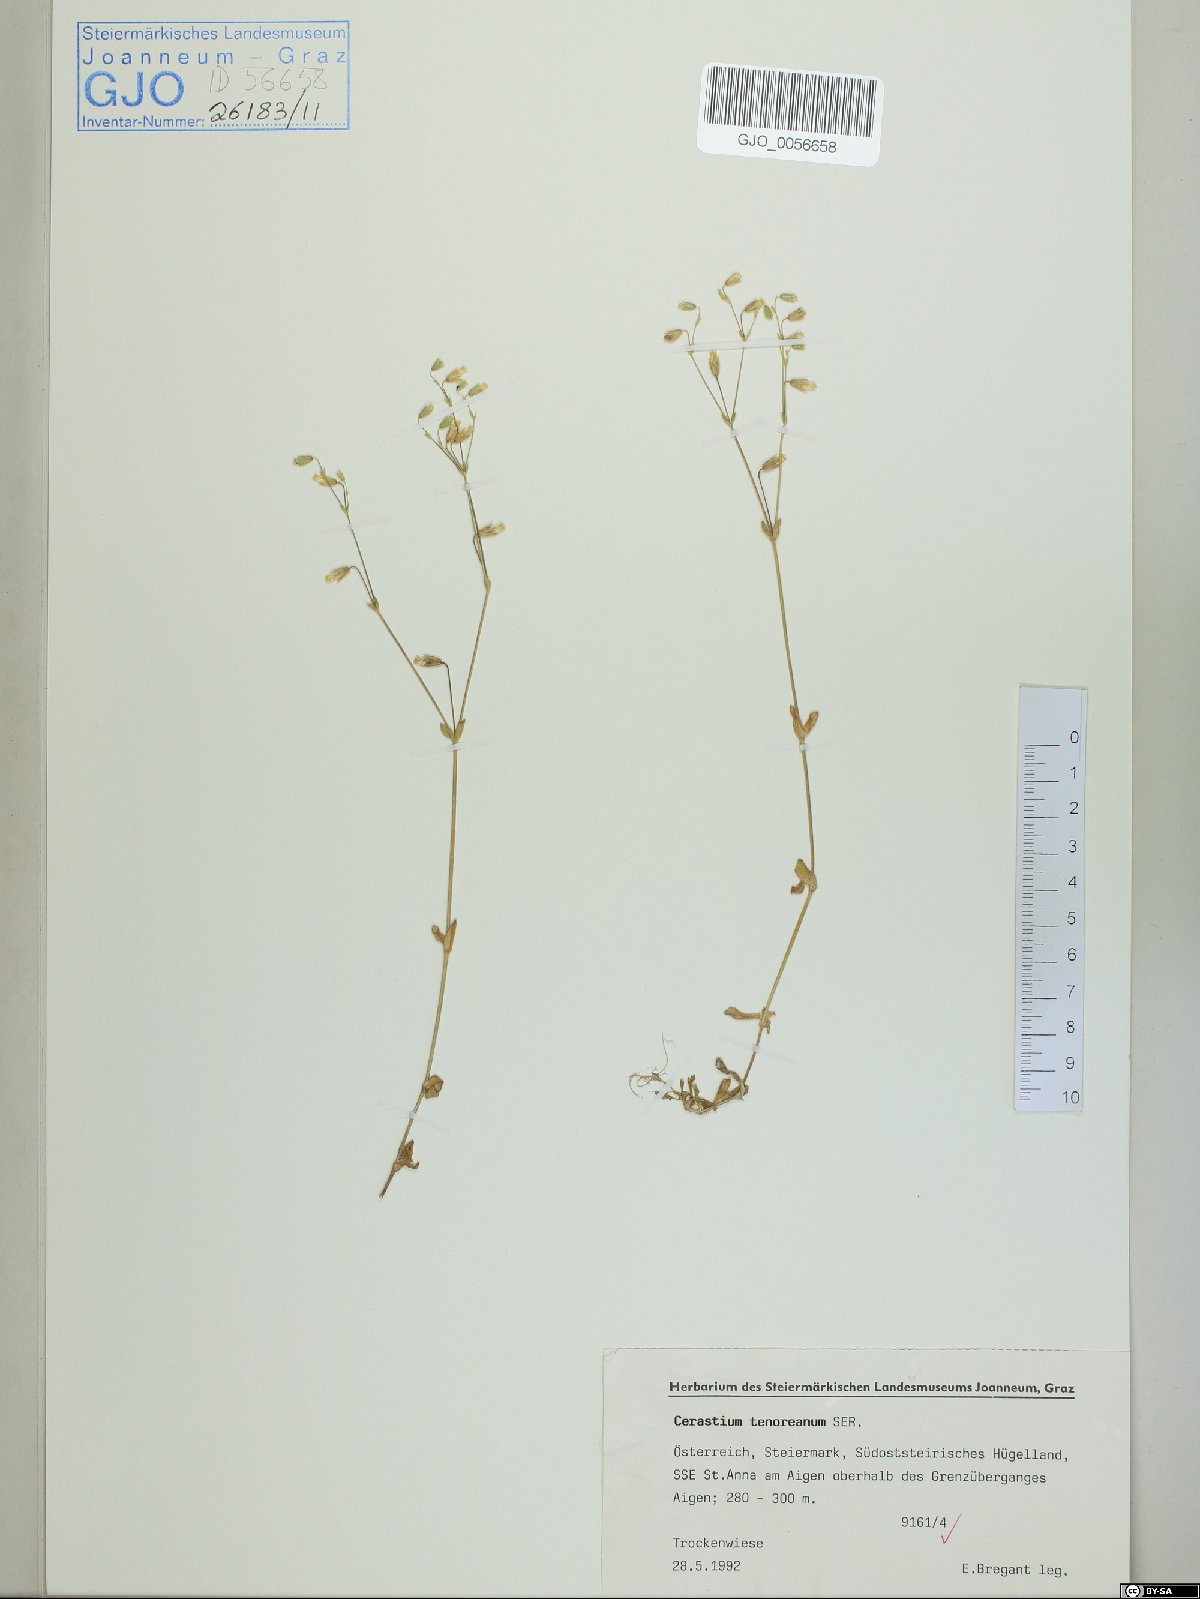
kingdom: Plantae
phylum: Tracheophyta
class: Magnoliopsida
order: Caryophyllales
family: Caryophyllaceae
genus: Cerastium
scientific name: Cerastium tenoreanum
